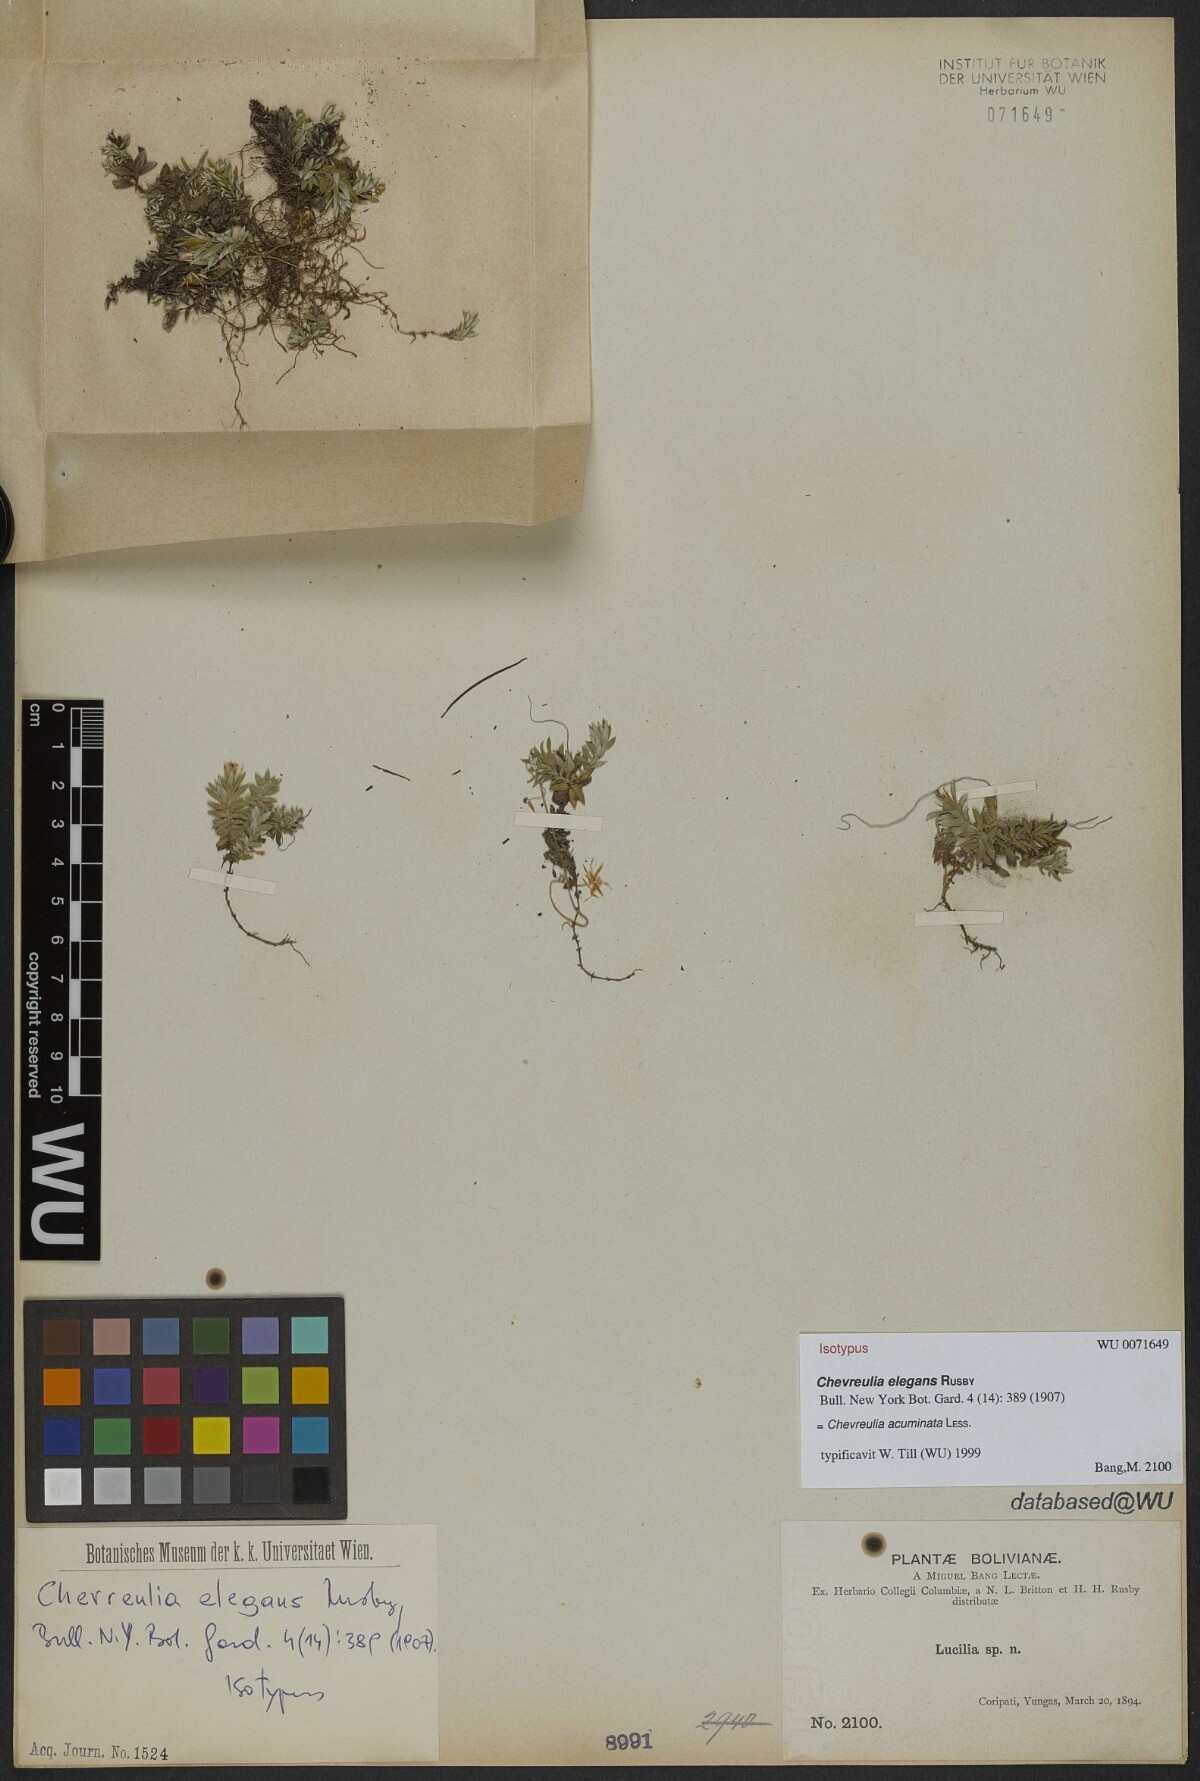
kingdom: Plantae
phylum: Tracheophyta
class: Magnoliopsida
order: Asterales
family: Asteraceae
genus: Chevreulia
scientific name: Chevreulia acuminata
